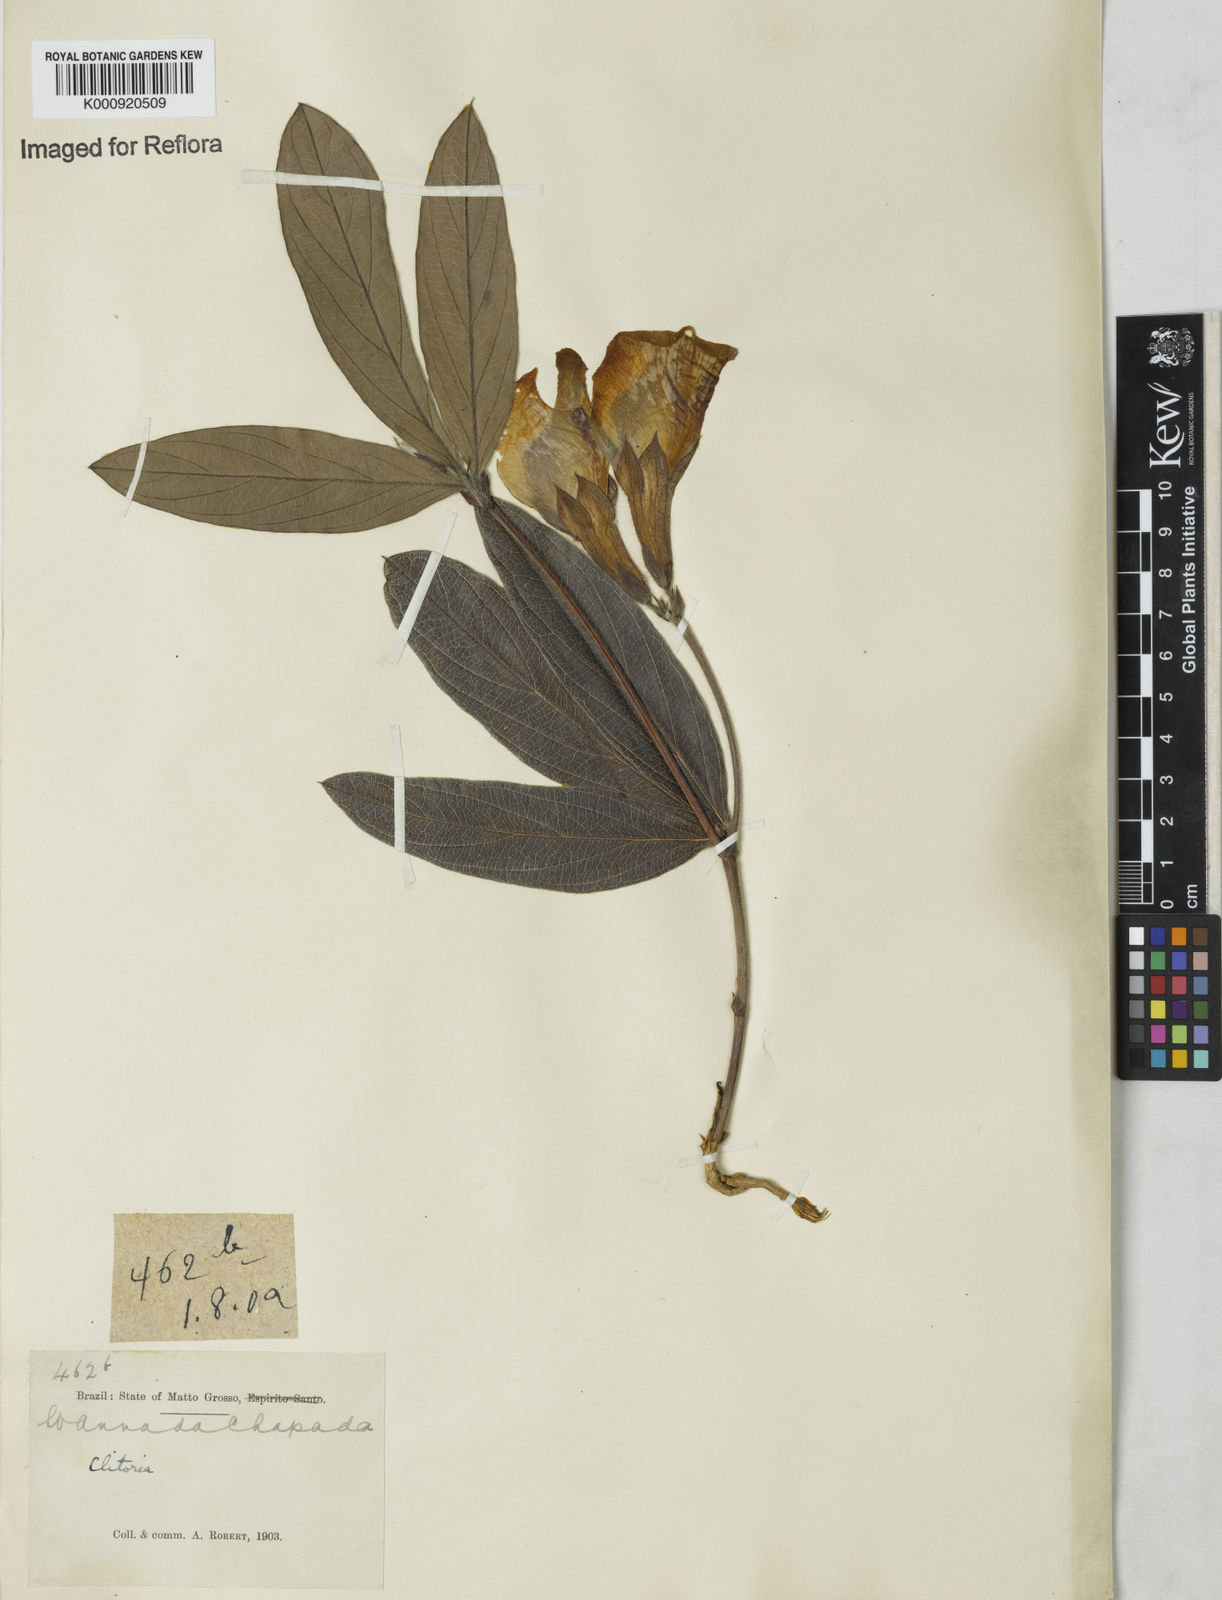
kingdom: Plantae
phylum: Tracheophyta
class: Magnoliopsida
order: Fabales
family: Fabaceae
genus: Clitoria
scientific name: Clitoria guianensis
